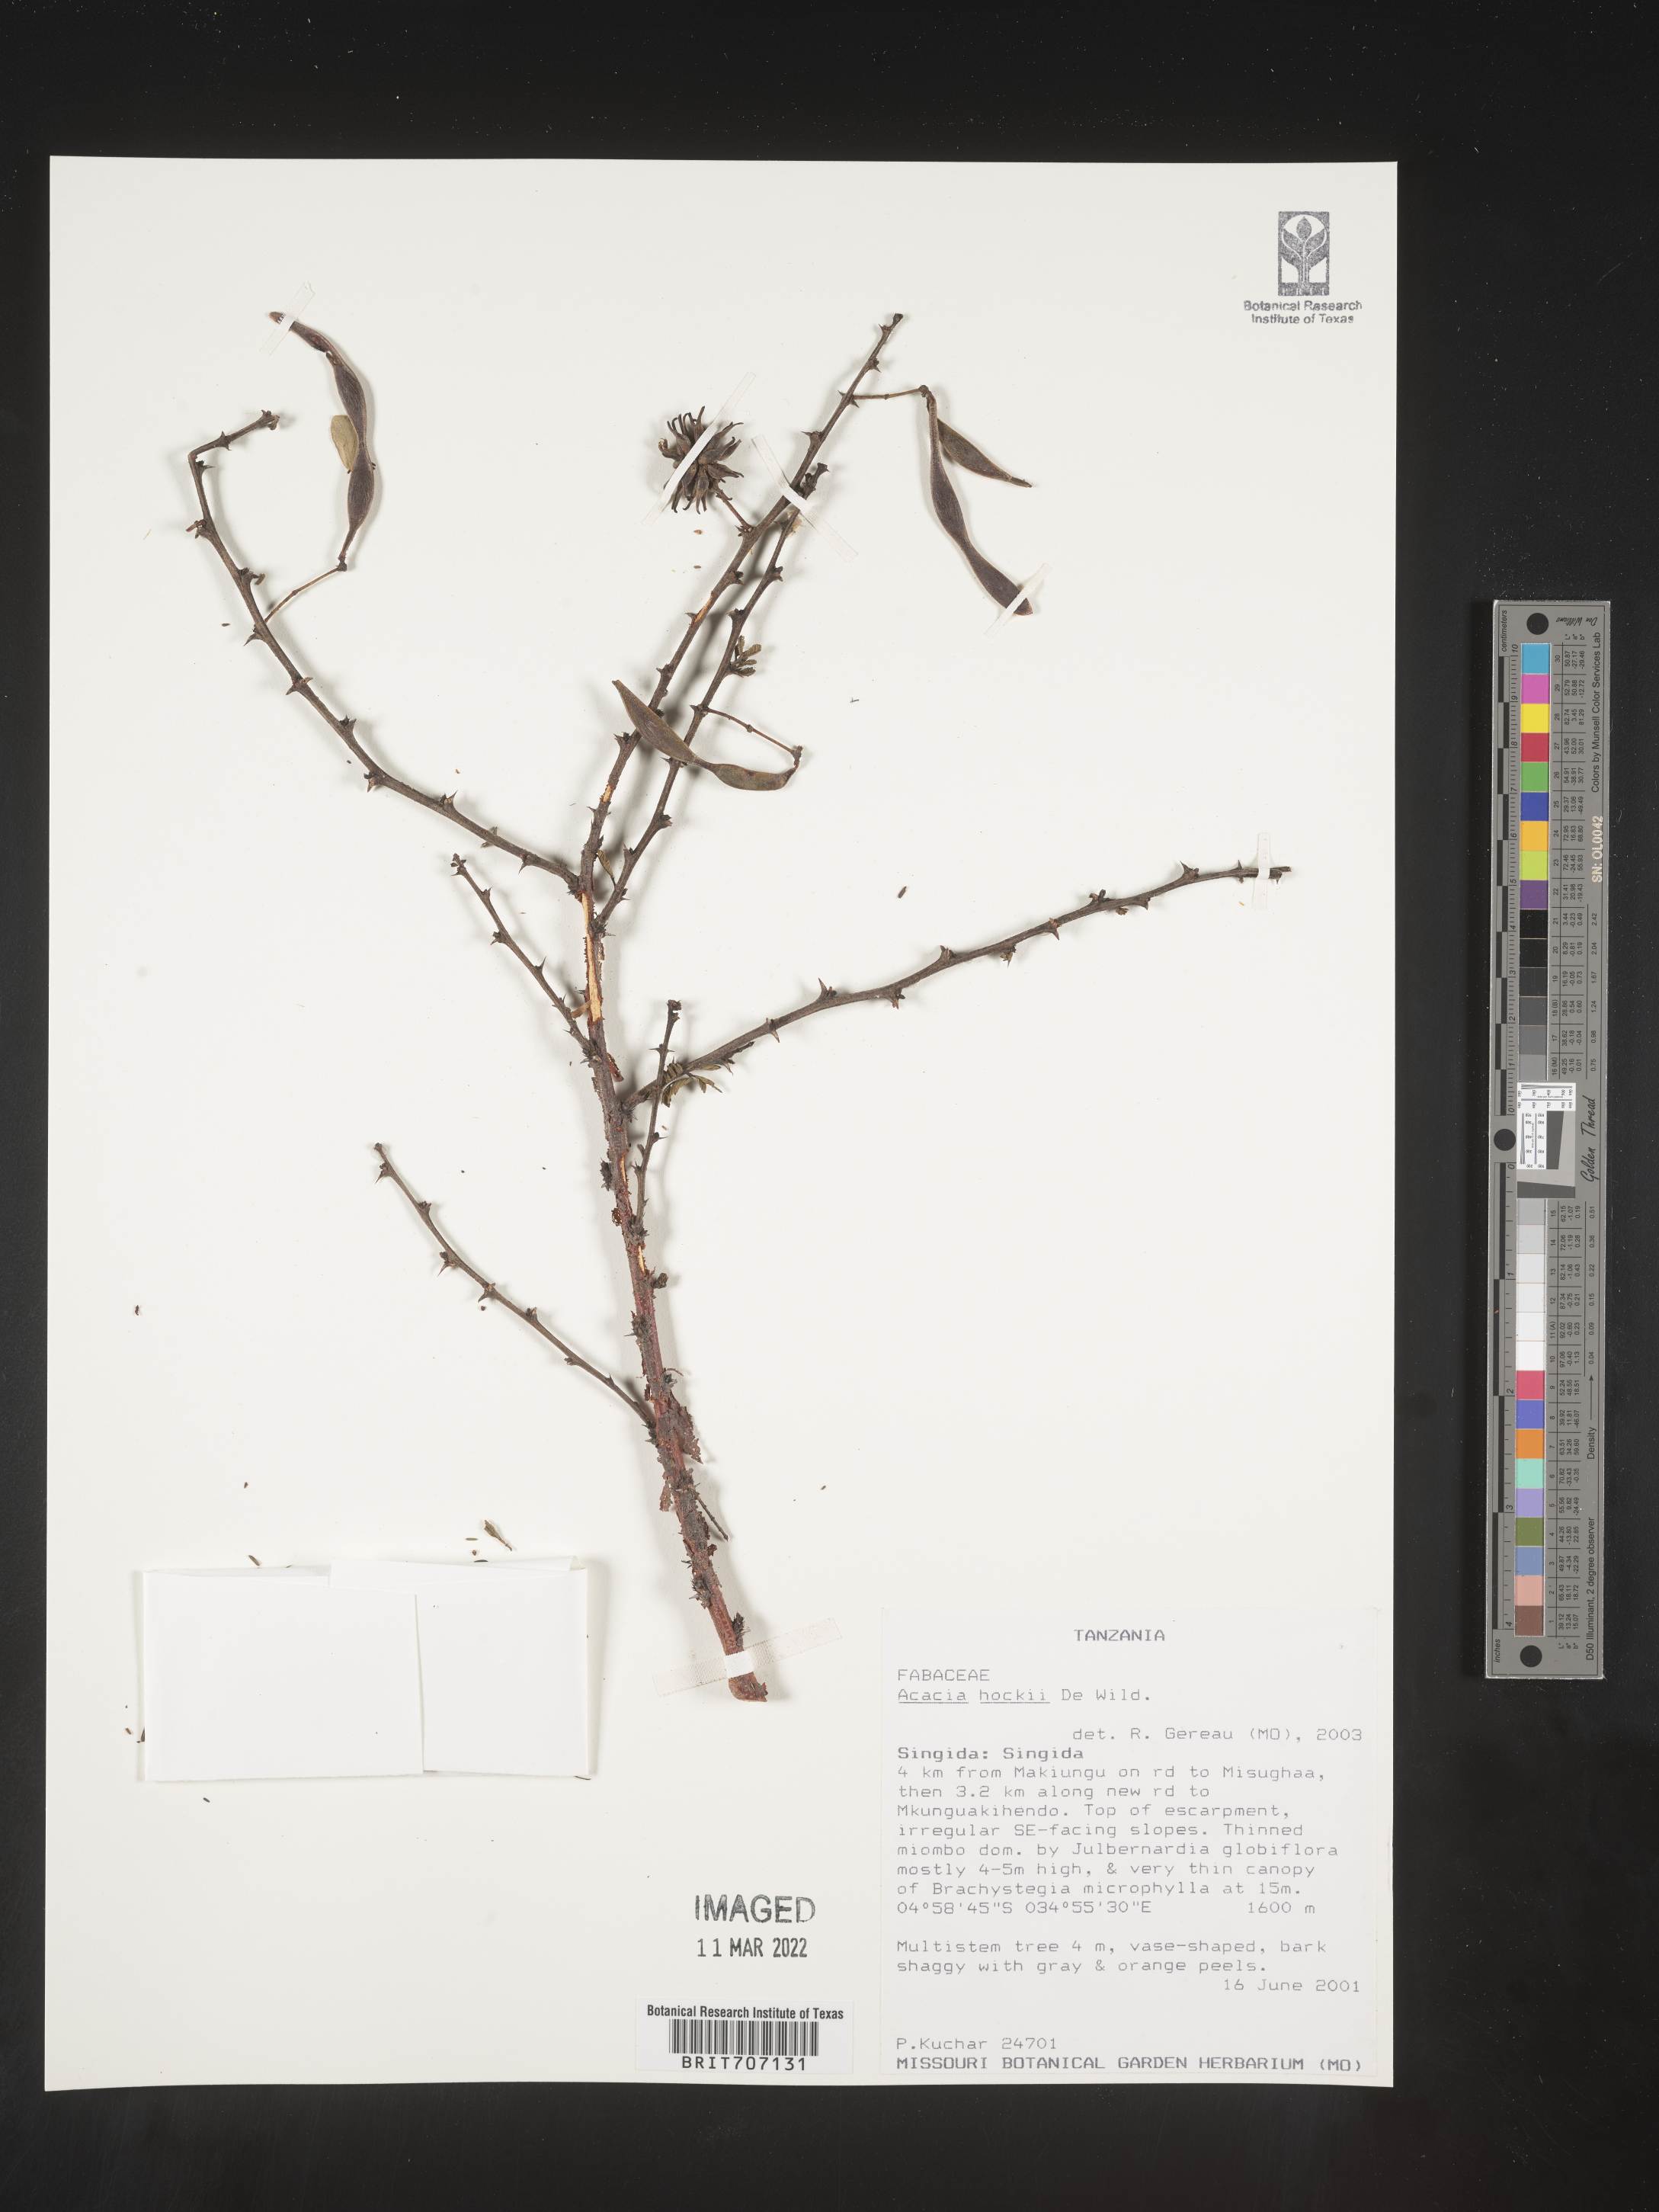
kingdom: Plantae
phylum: Tracheophyta
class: Magnoliopsida
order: Fabales
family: Fabaceae
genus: Acacia
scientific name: Acacia
